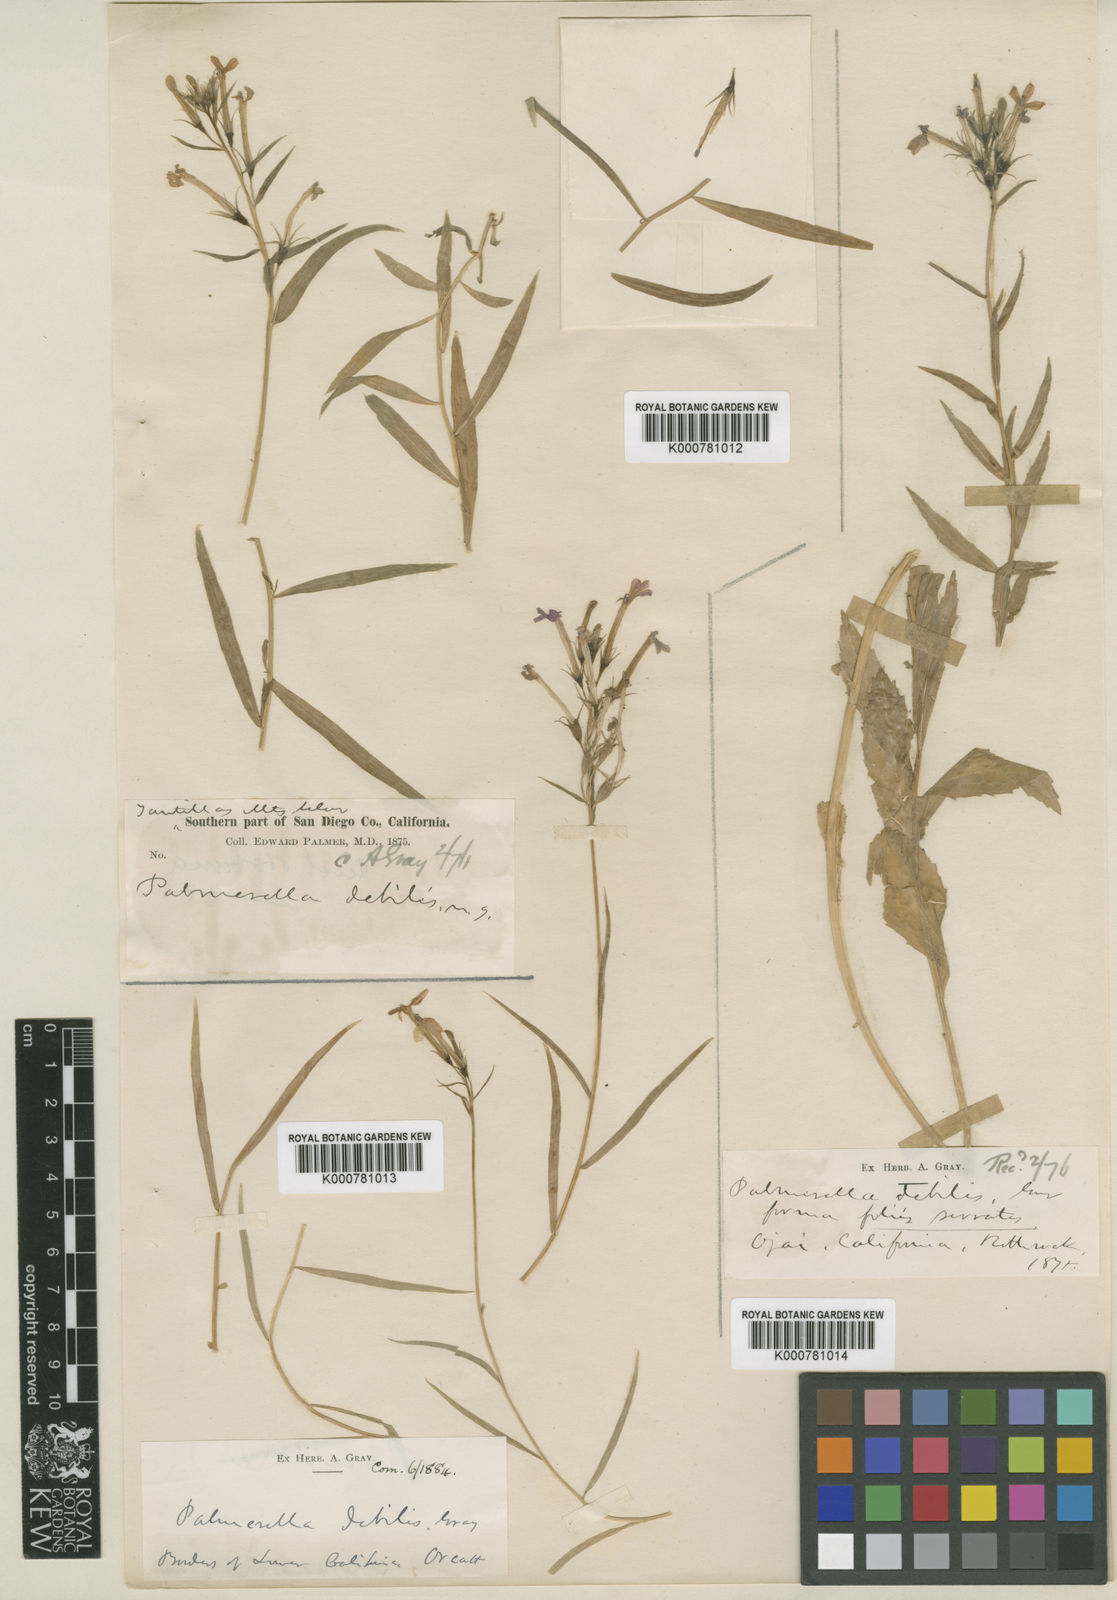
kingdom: Plantae
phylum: Tracheophyta
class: Magnoliopsida
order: Asterales
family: Campanulaceae
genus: Porterella
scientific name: Porterella
